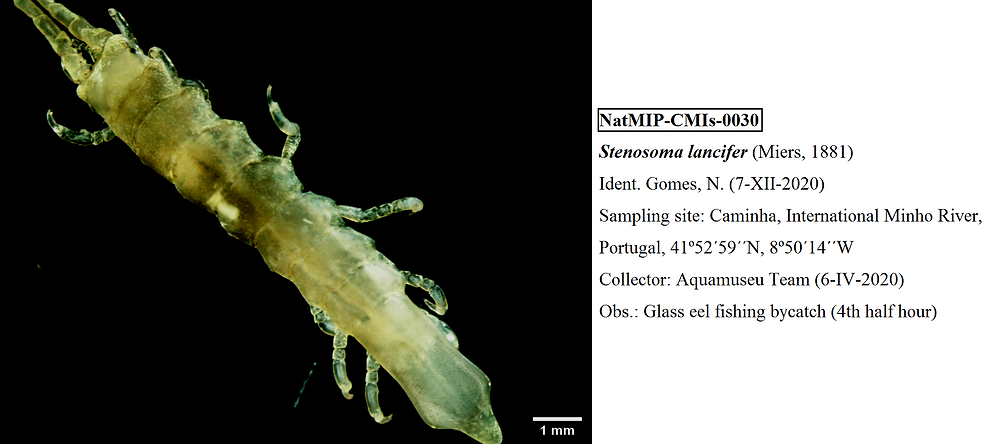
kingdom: Animalia
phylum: Arthropoda
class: Malacostraca
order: Isopoda
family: Idoteidae
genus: Stenosoma
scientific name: Stenosoma lancifer
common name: Sea slater
